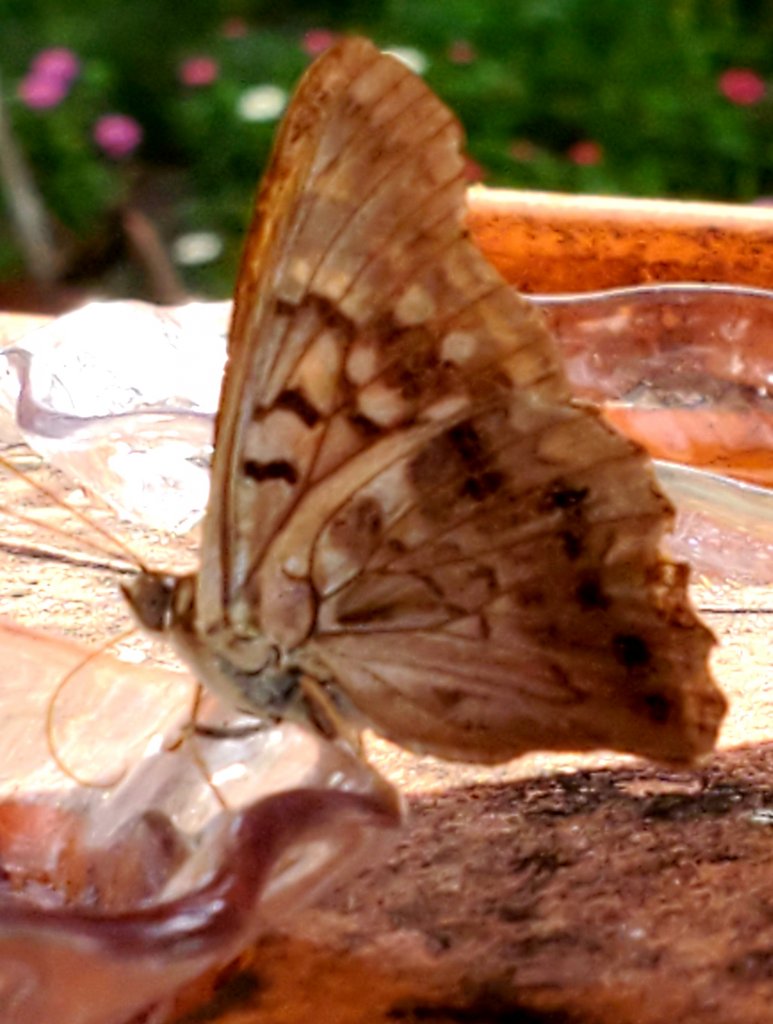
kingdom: Animalia
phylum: Arthropoda
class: Insecta
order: Lepidoptera
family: Nymphalidae
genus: Asterocampa
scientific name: Asterocampa clyton
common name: Tawny Emperor
